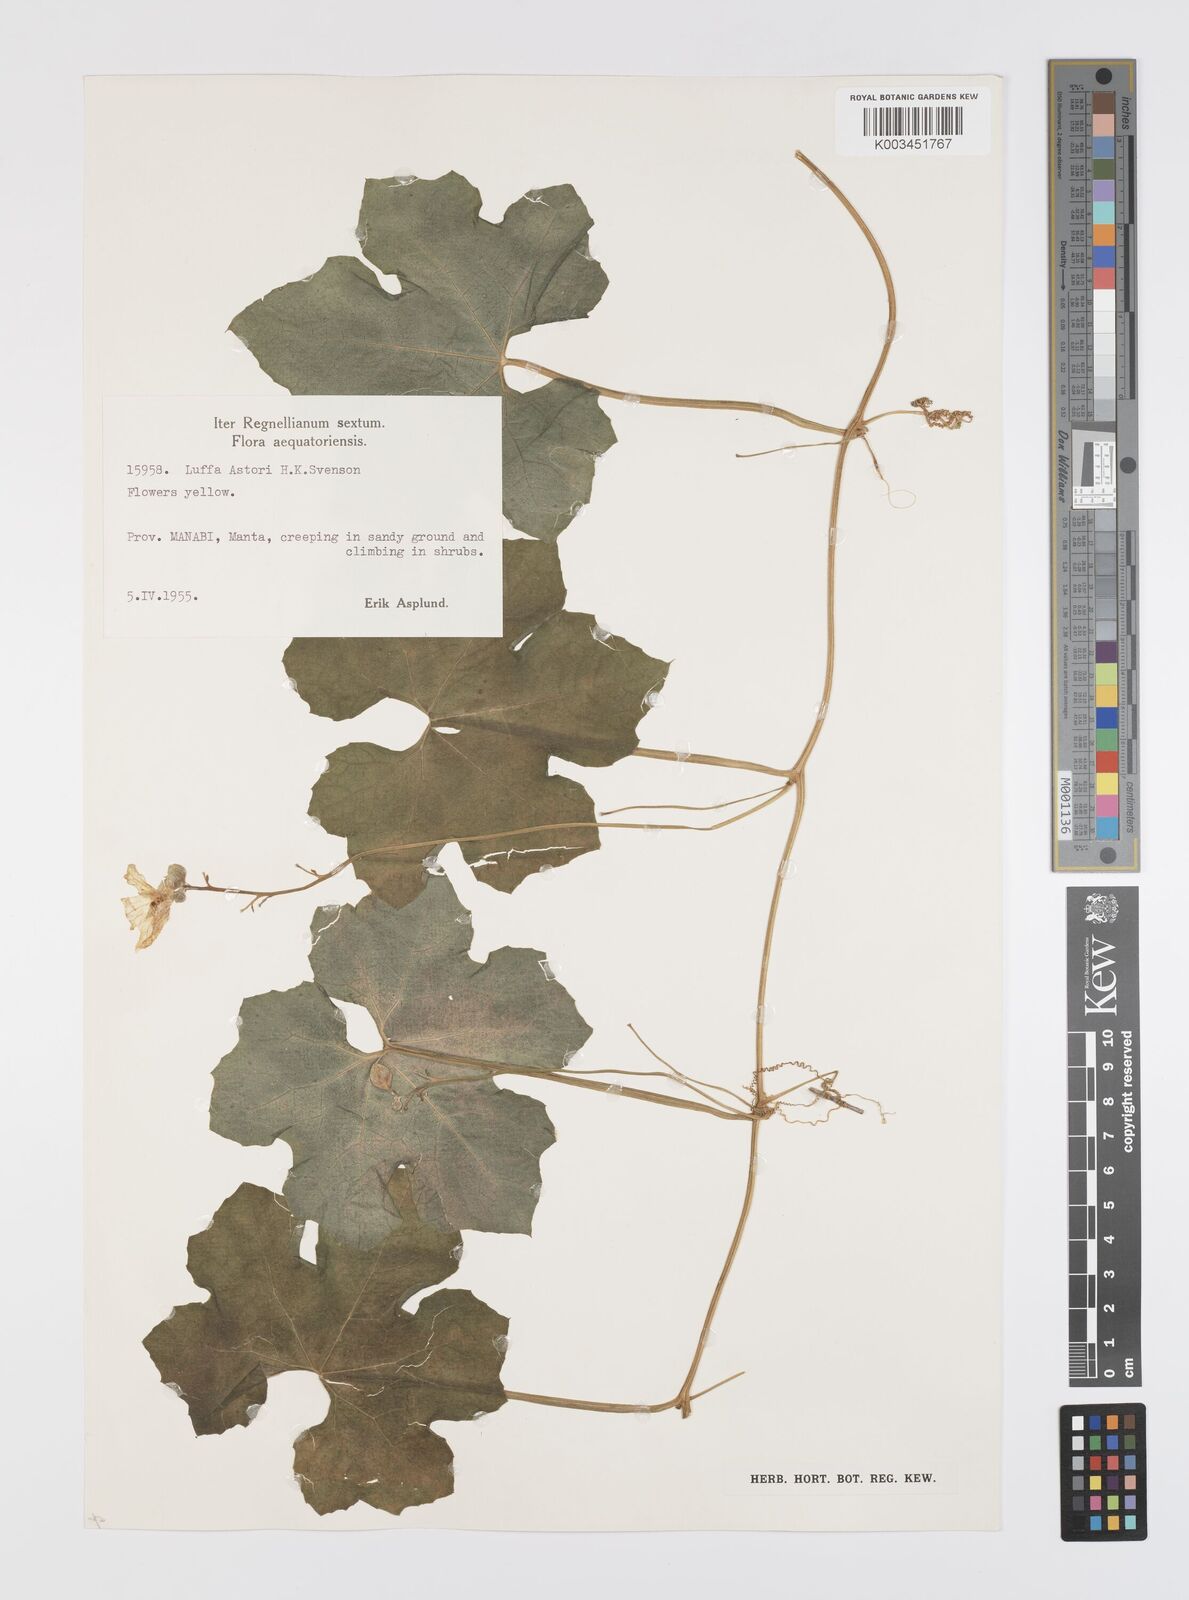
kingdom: Plantae
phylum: Tracheophyta
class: Magnoliopsida
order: Cucurbitales
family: Cucurbitaceae
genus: Luffa
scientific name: Luffa astorii
